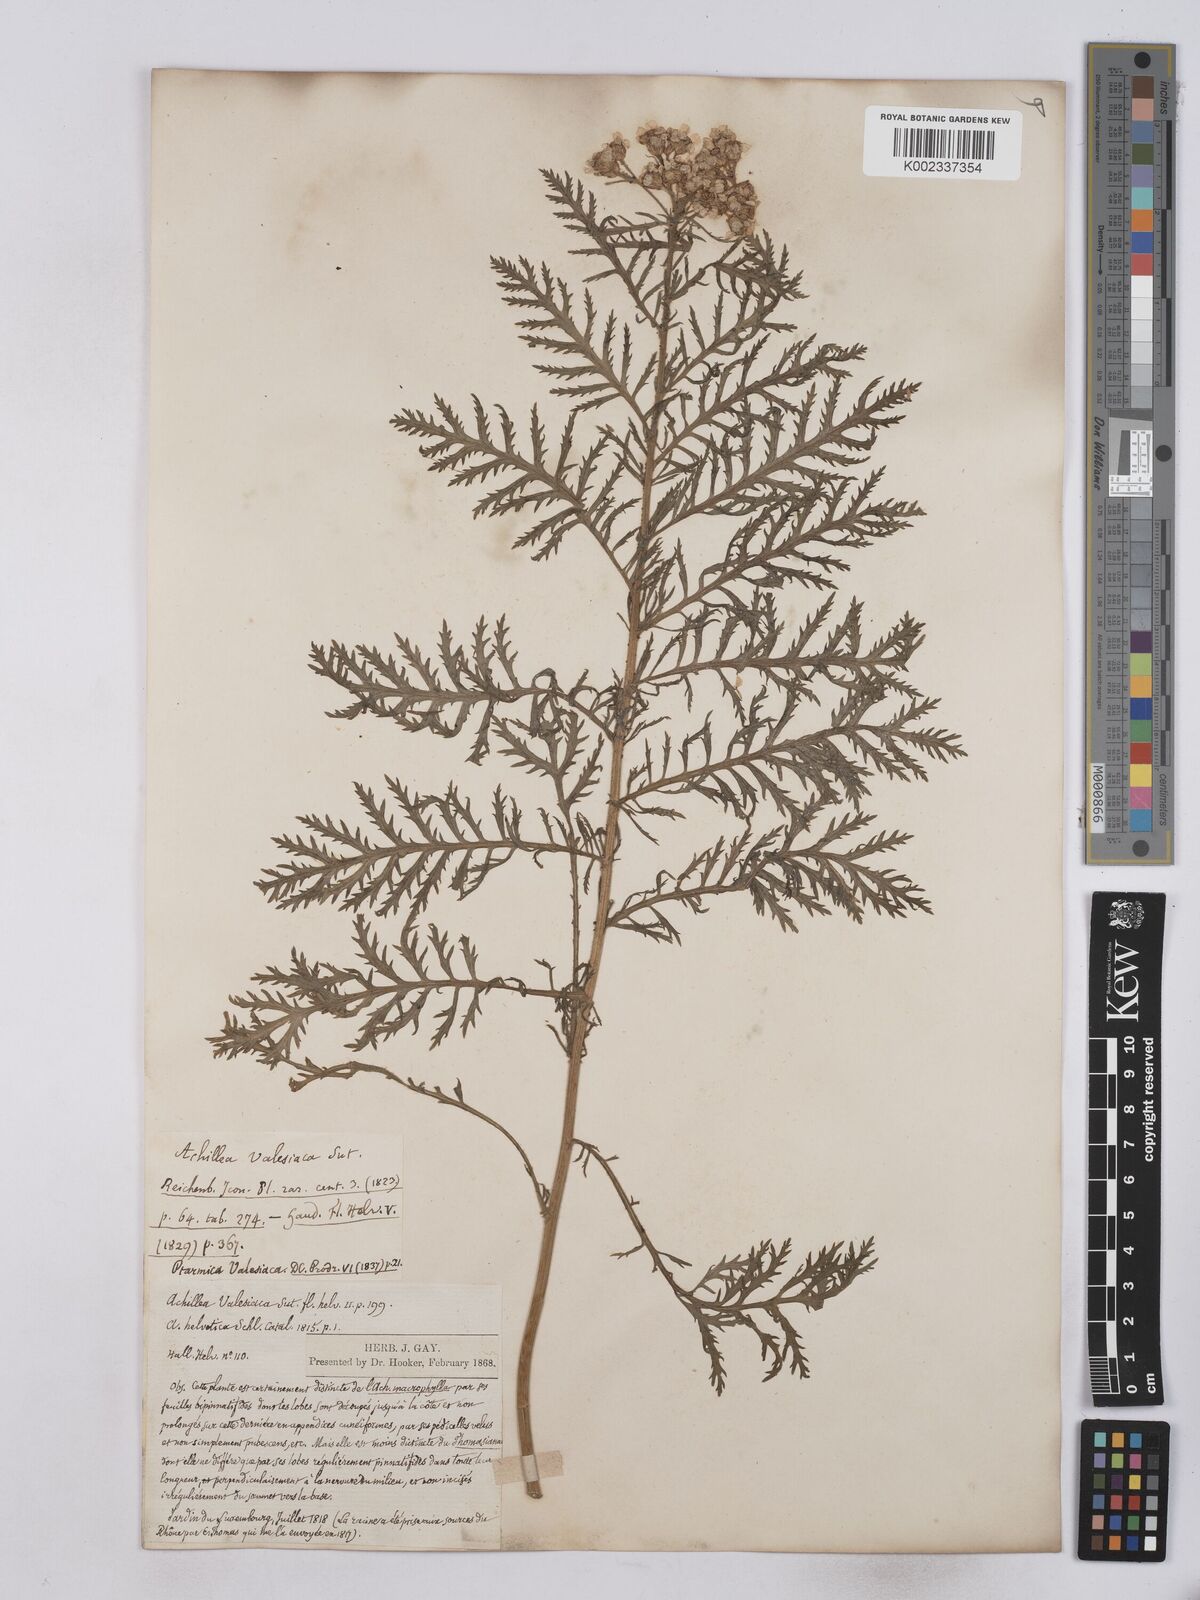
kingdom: Plantae
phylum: Tracheophyta
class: Magnoliopsida
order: Asterales
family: Asteraceae
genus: Achillea
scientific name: Achillea valesiaca
